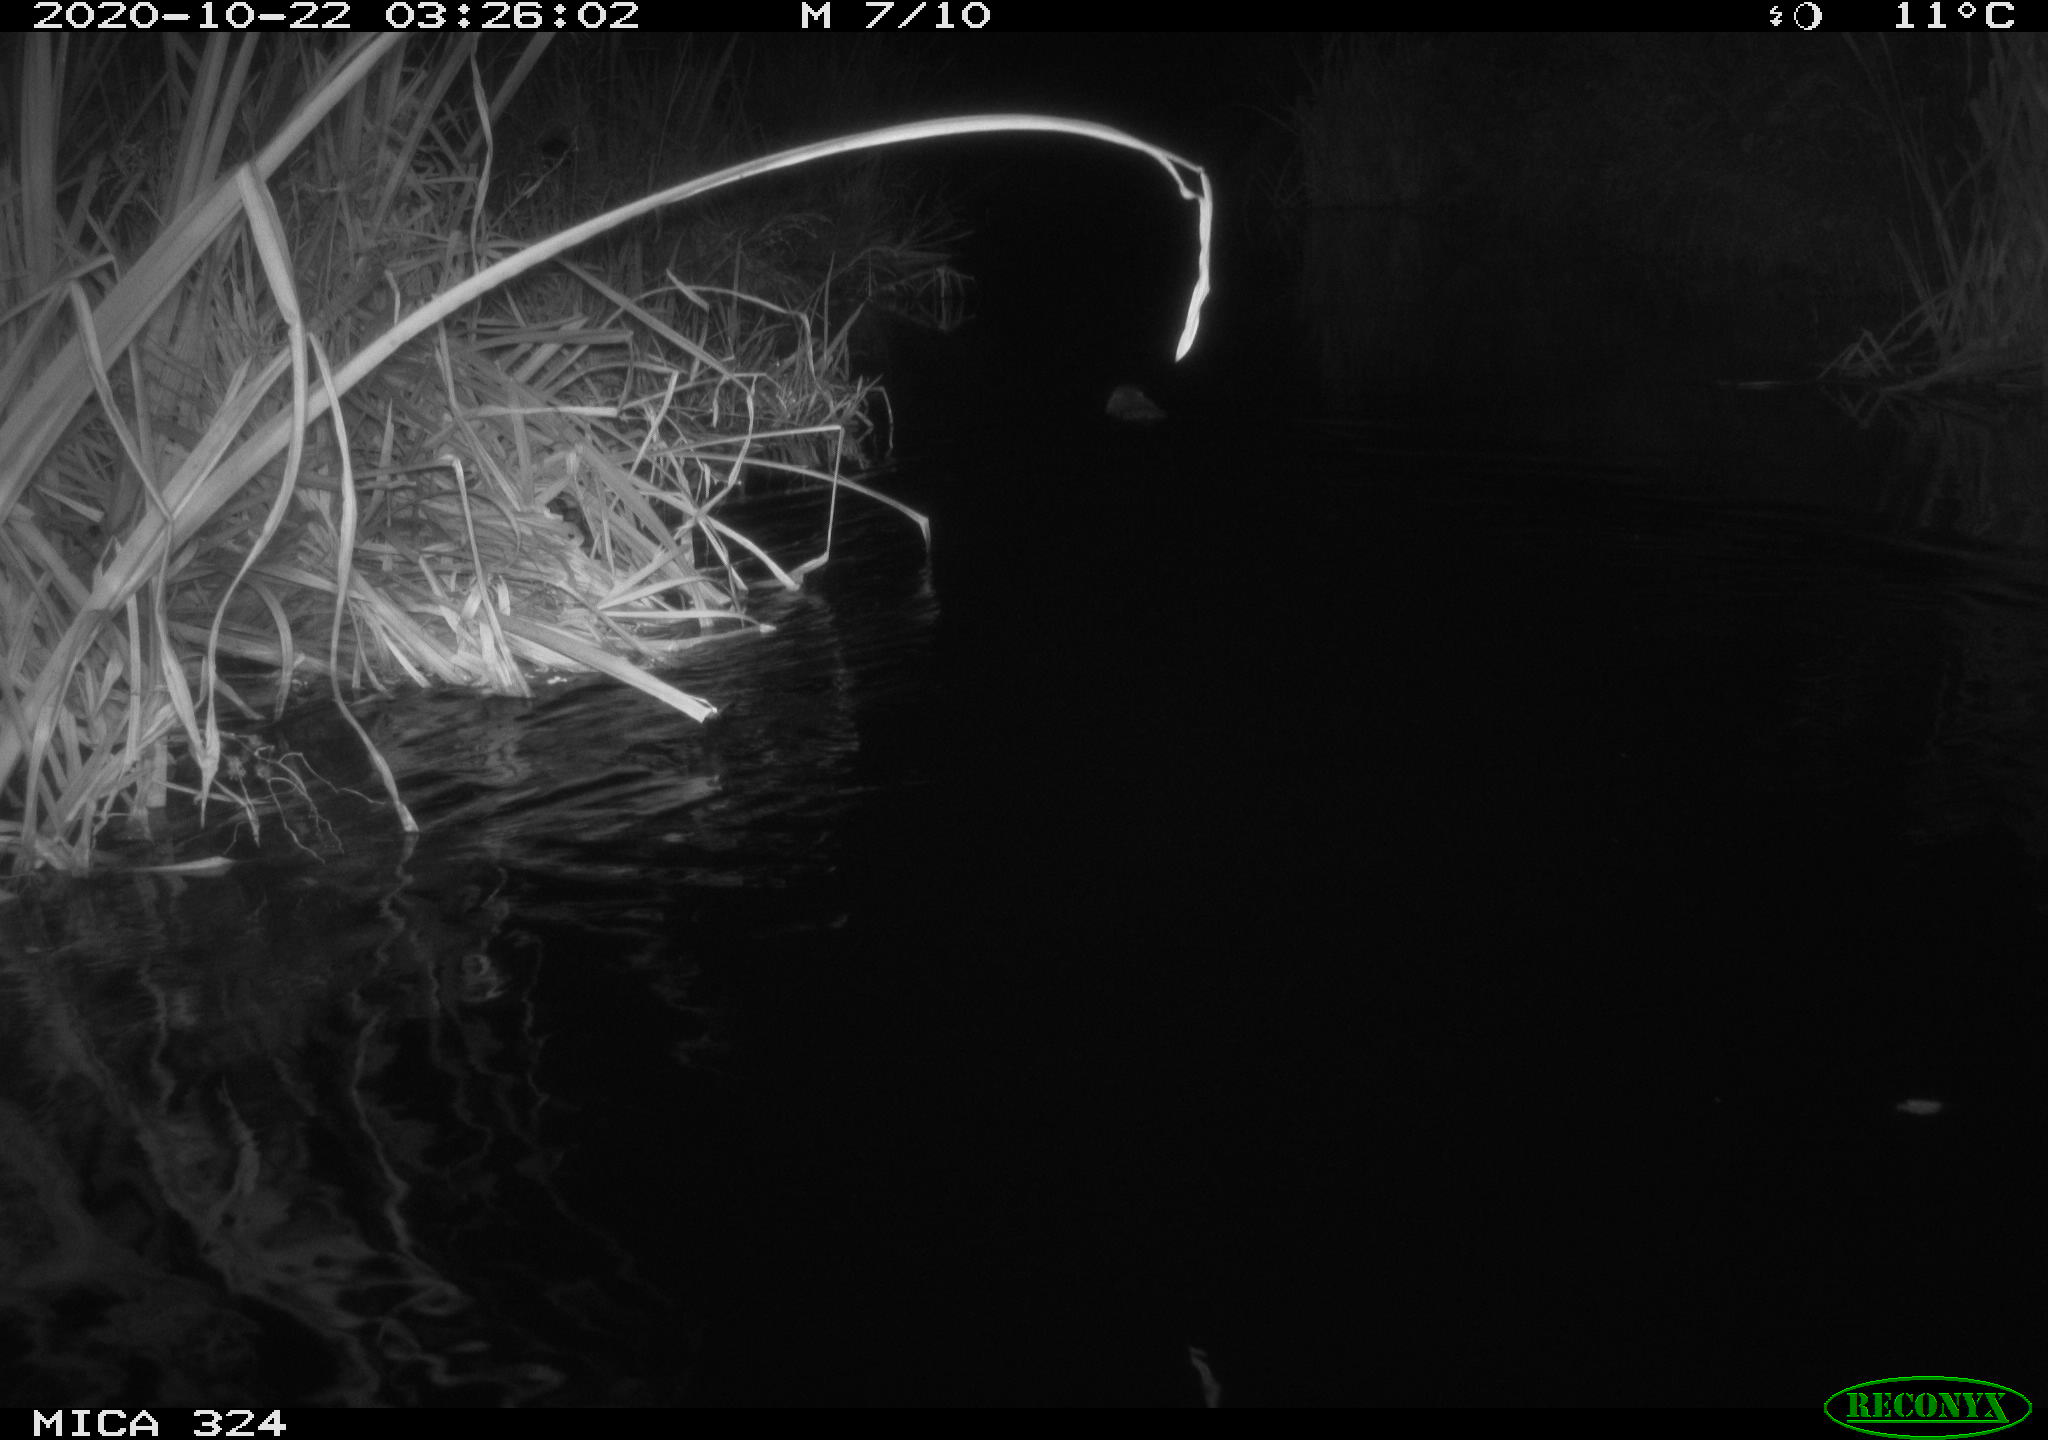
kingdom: Animalia
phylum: Chordata
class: Mammalia
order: Rodentia
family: Cricetidae
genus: Ondatra
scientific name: Ondatra zibethicus
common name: Muskrat
